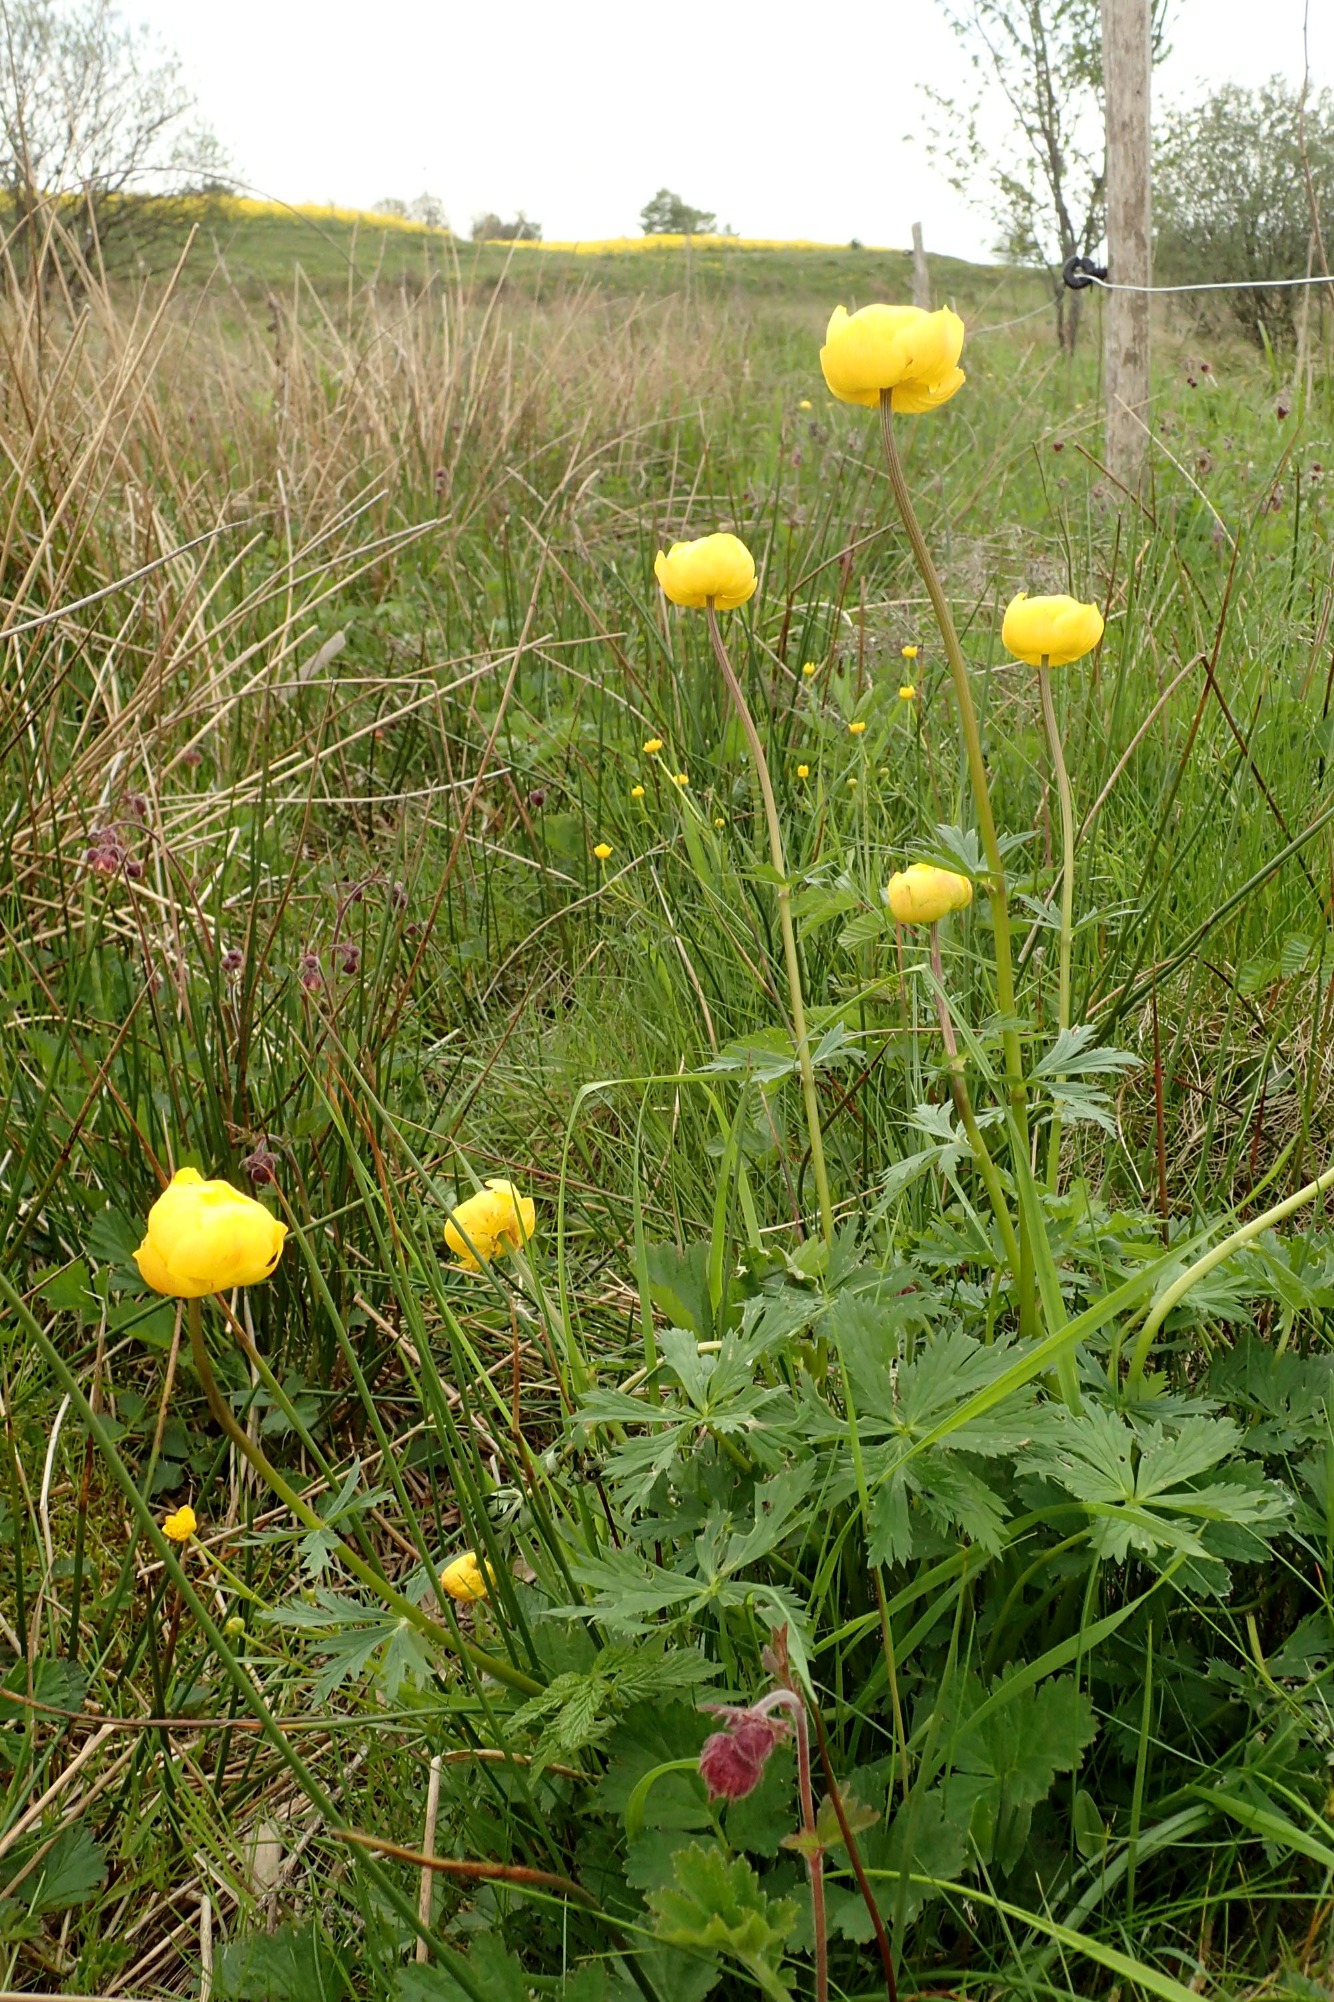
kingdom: Plantae
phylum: Tracheophyta
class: Magnoliopsida
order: Ranunculales
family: Ranunculaceae
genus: Trollius
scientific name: Trollius europaeus
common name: Engblomme
